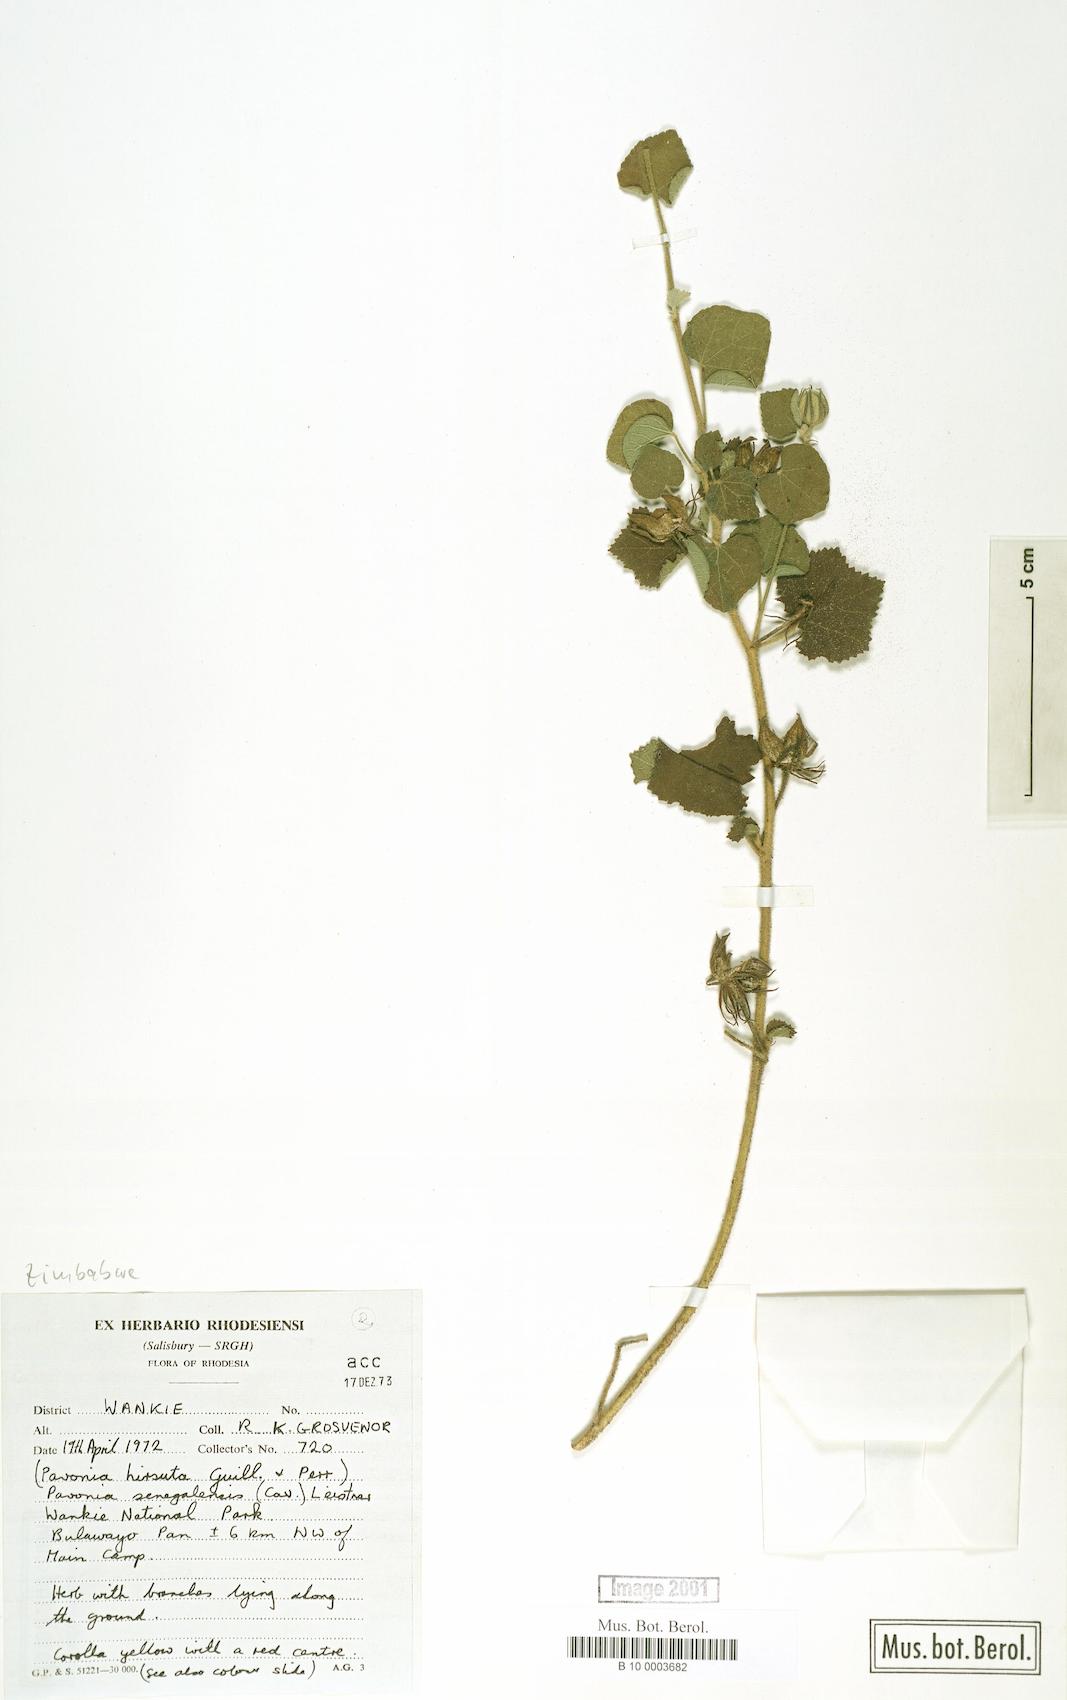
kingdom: Plantae
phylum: Tracheophyta
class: Magnoliopsida
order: Malvales
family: Malvaceae
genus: Pavonia
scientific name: Pavonia senegalensis
